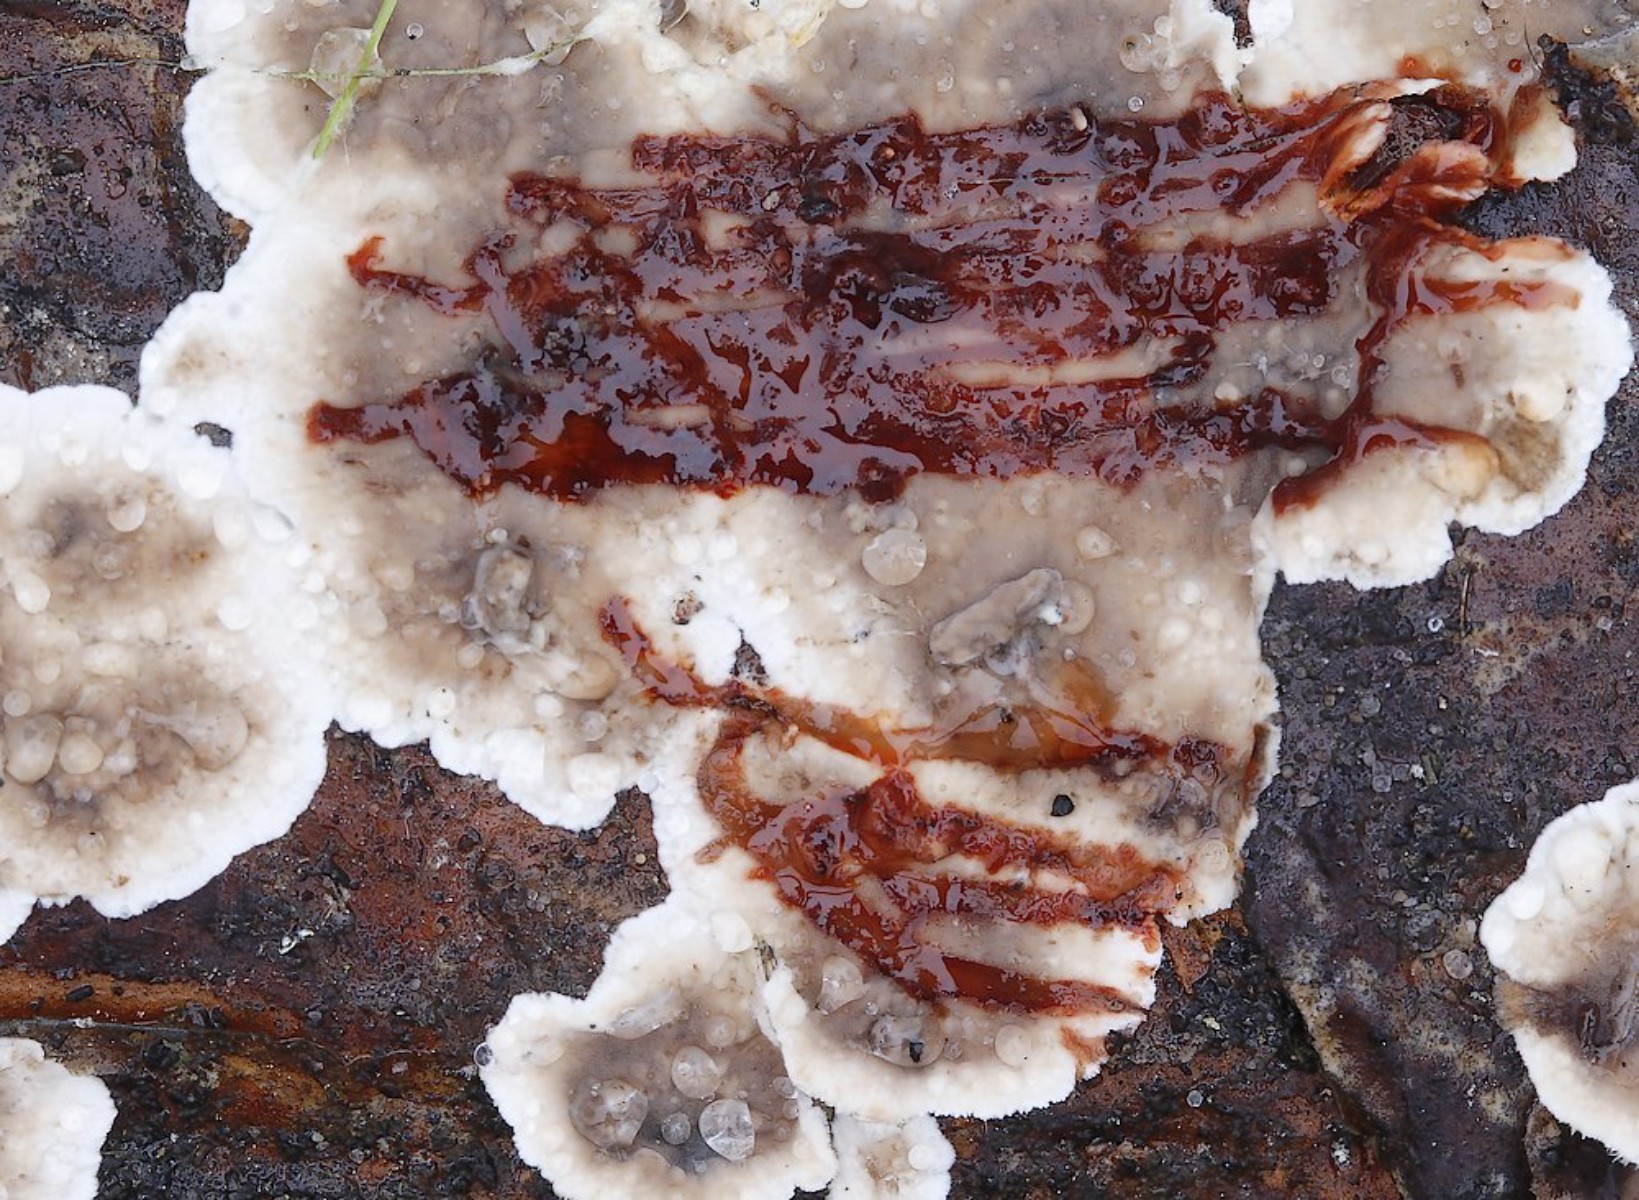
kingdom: Fungi
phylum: Basidiomycota
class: Agaricomycetes
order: Russulales
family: Stereaceae
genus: Stereum
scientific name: Stereum sanguinolentum
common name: blødende lædersvamp
